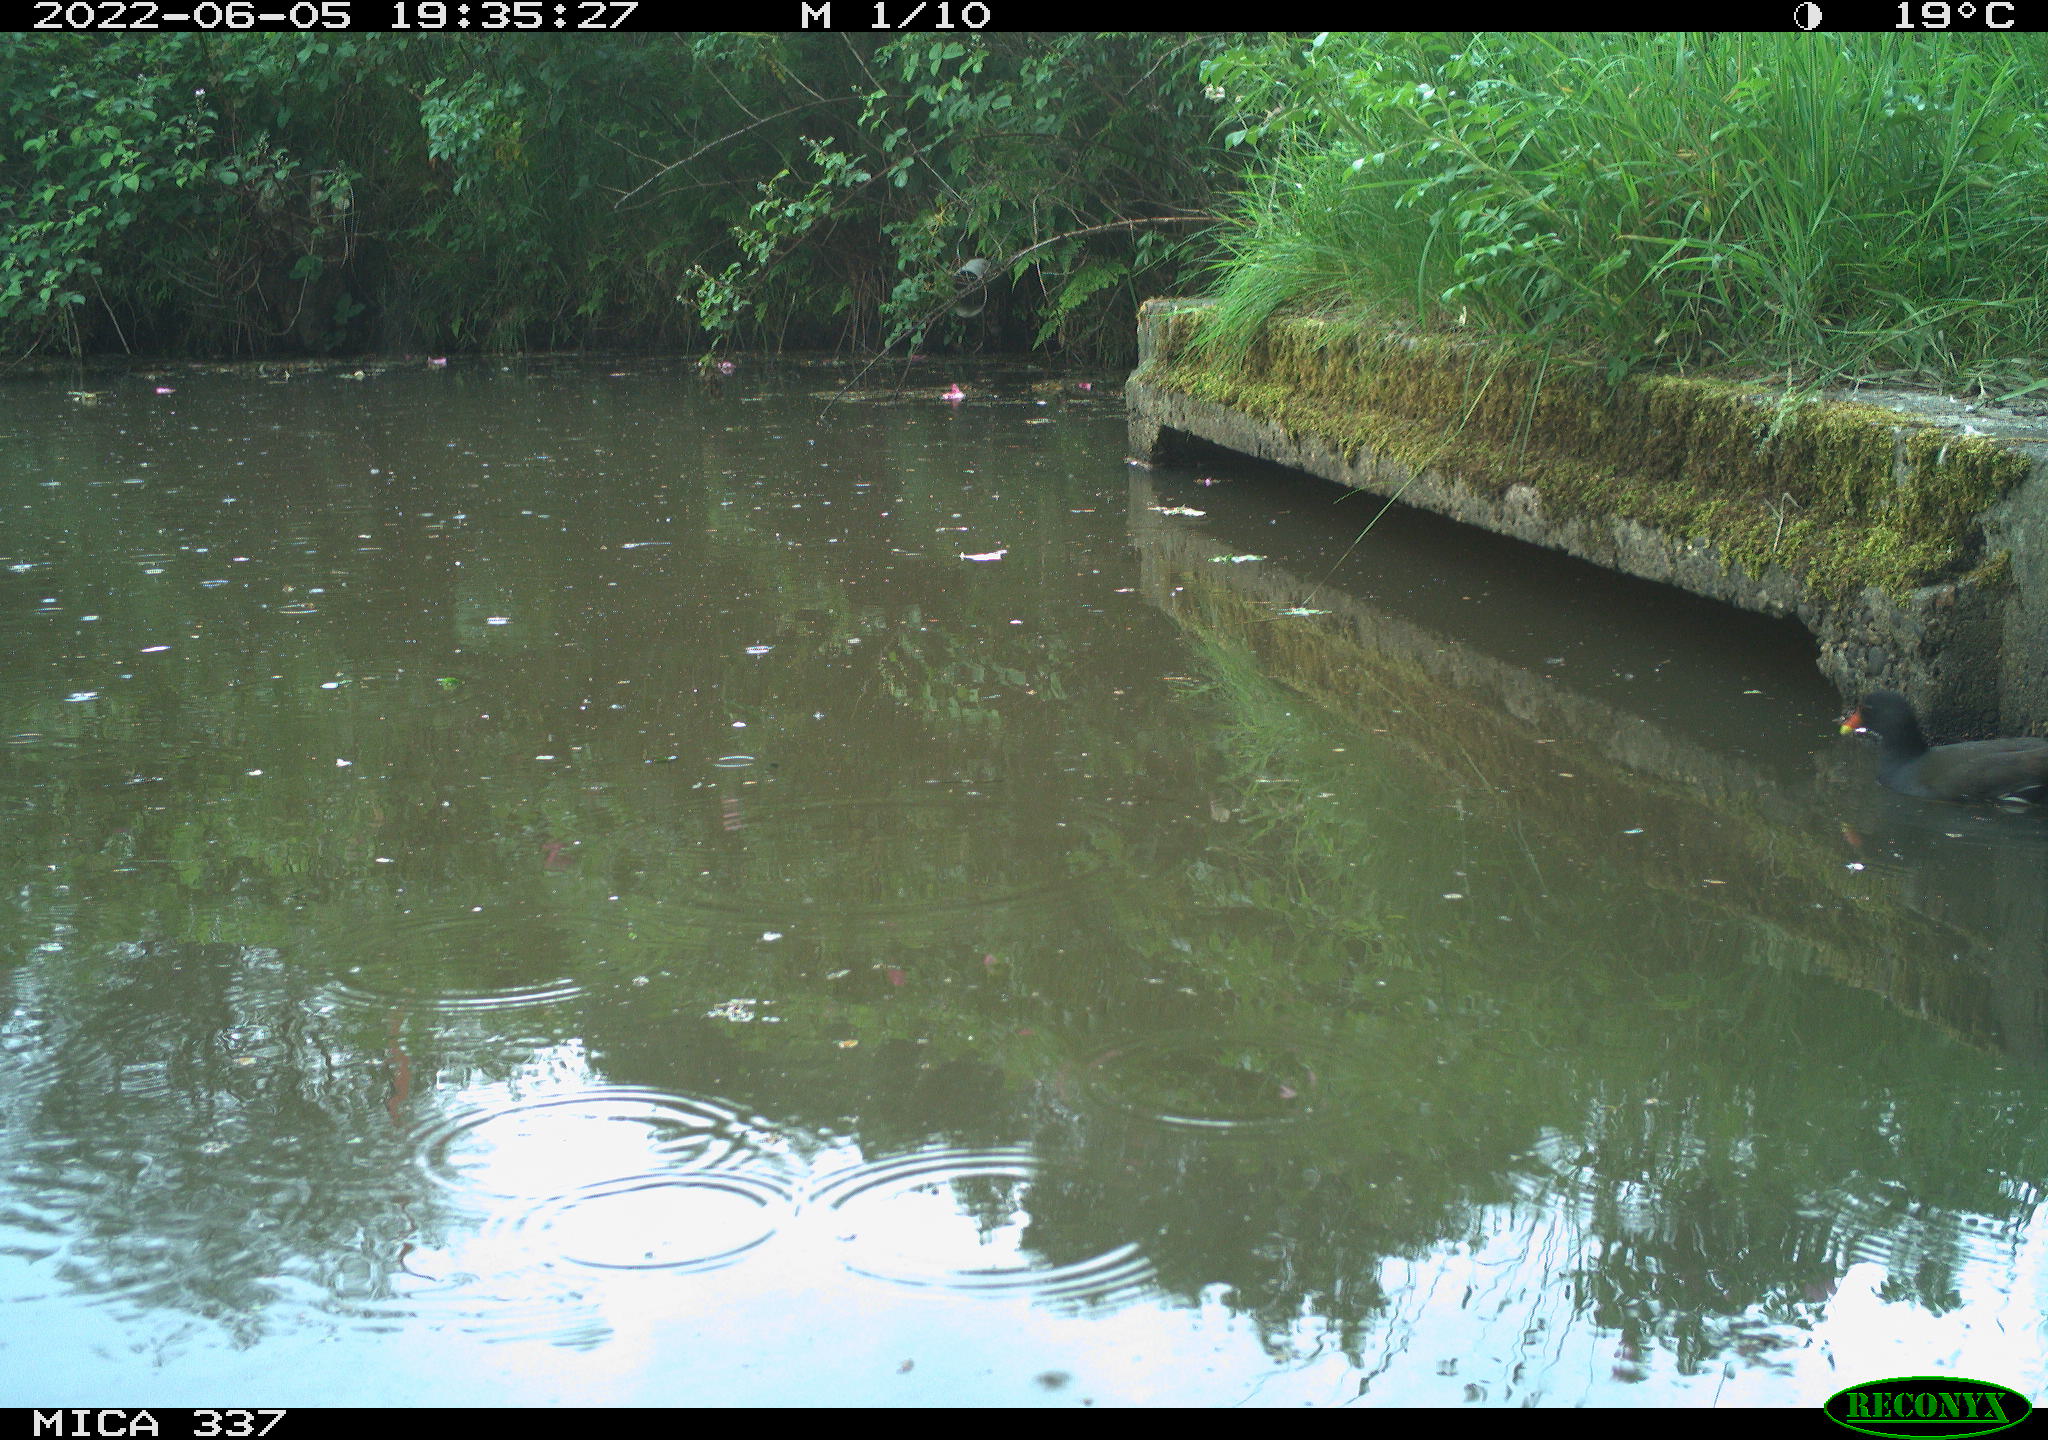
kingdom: Animalia
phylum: Chordata
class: Aves
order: Gruiformes
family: Rallidae
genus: Gallinula
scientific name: Gallinula chloropus
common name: Common moorhen
